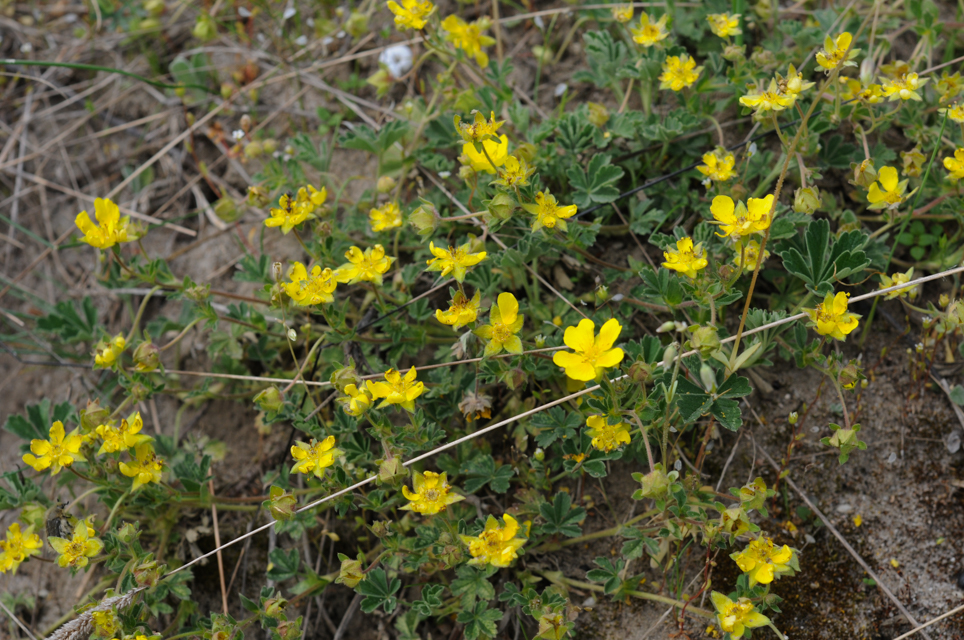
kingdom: Plantae
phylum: Tracheophyta
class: Magnoliopsida
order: Rosales
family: Rosaceae
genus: Potentilla
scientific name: Potentilla verna
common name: Spring cinquefoil
